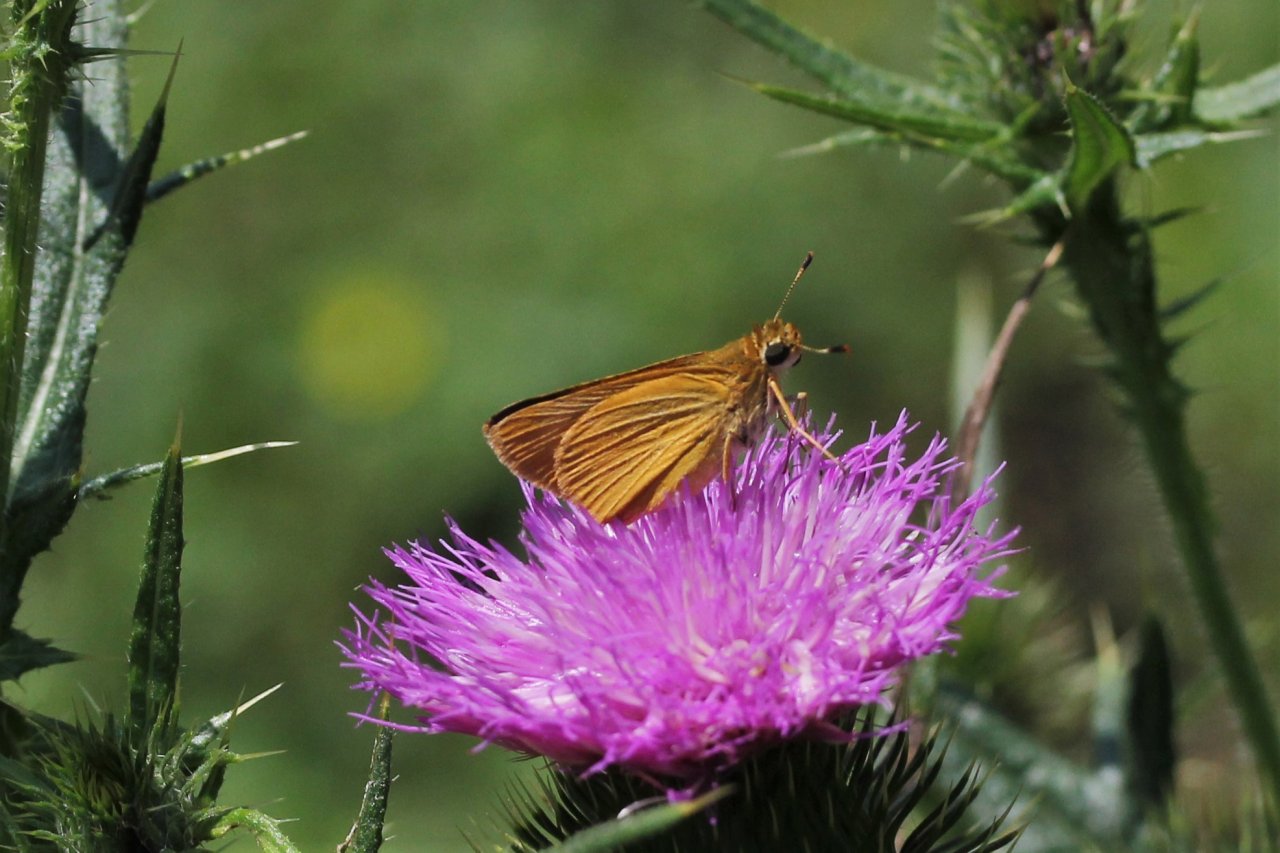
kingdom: Animalia
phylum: Arthropoda
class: Insecta
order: Lepidoptera
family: Hesperiidae
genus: Atrytone
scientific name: Atrytone delaware
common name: Delaware Skipper
